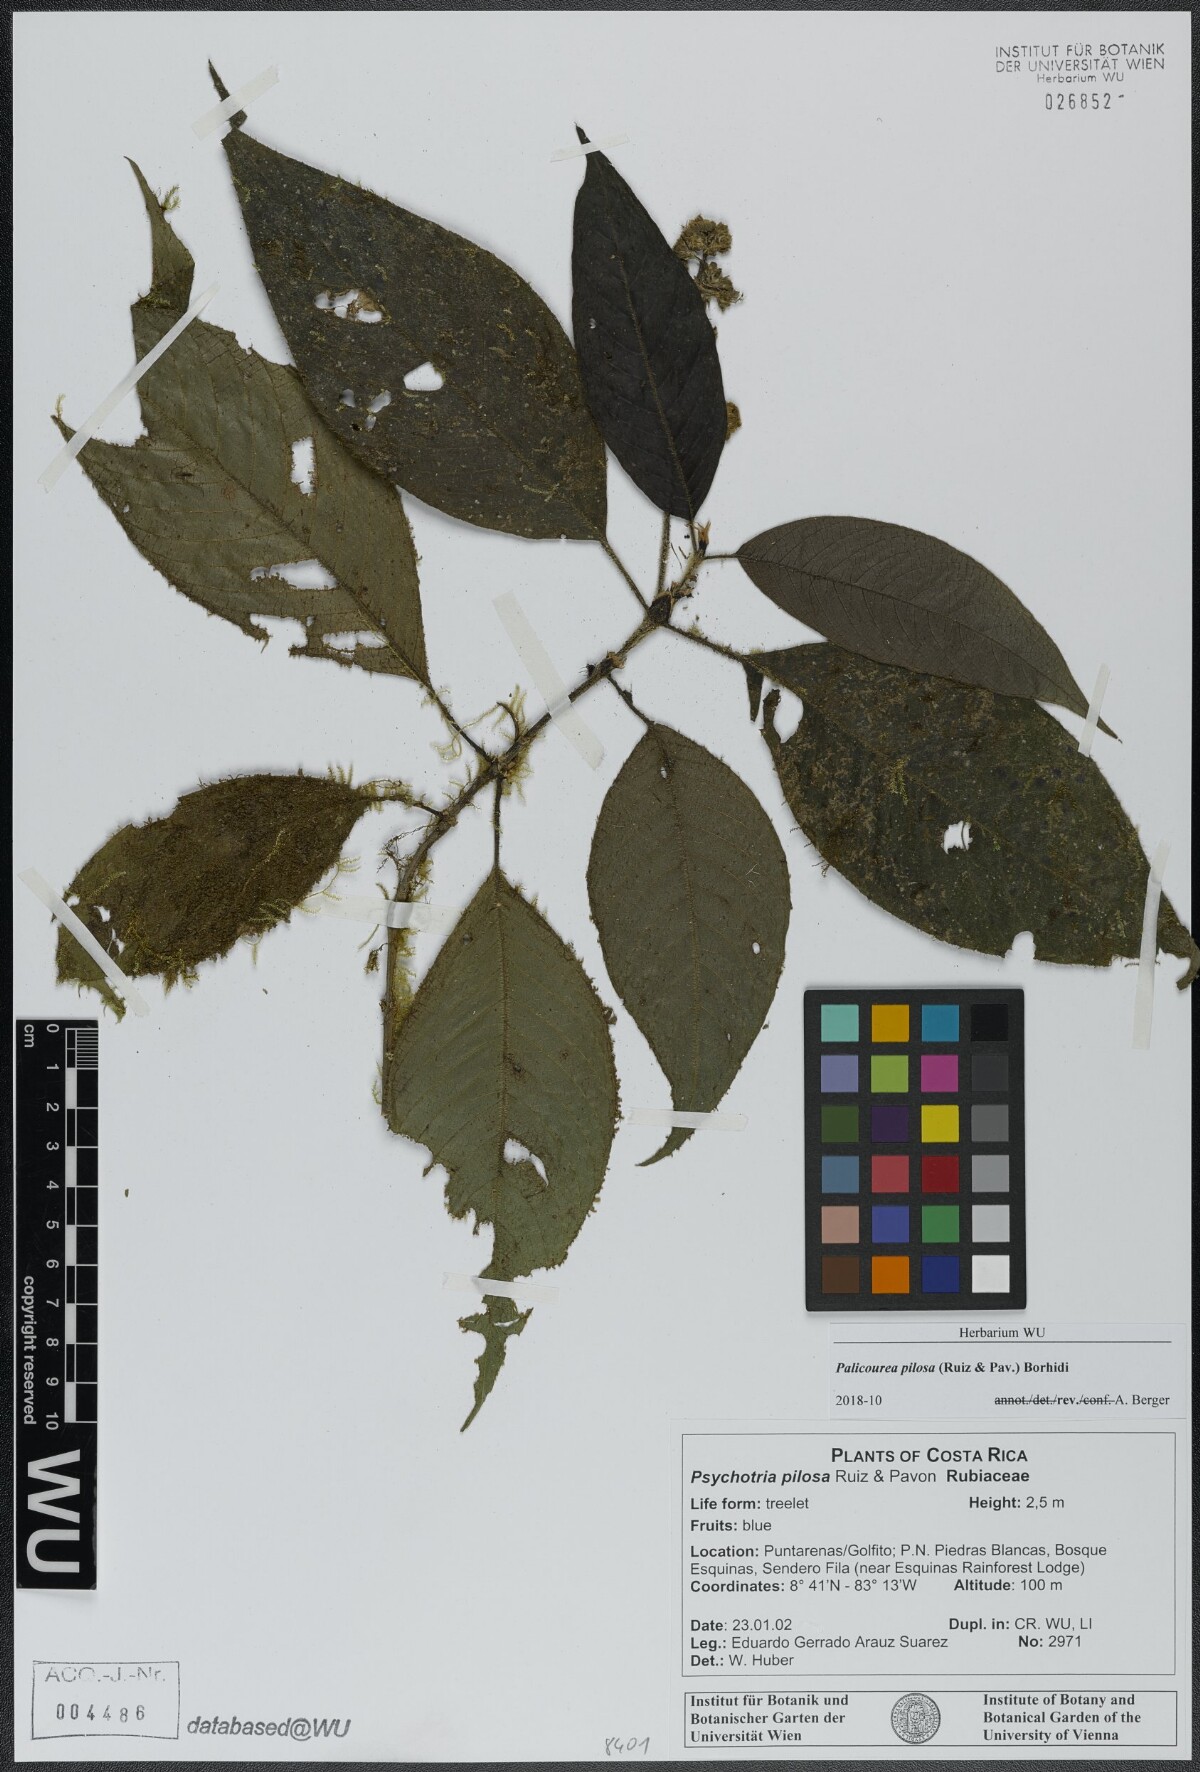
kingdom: Plantae
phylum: Tracheophyta
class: Magnoliopsida
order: Gentianales
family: Rubiaceae
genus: Palicourea
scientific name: Palicourea pilosa
